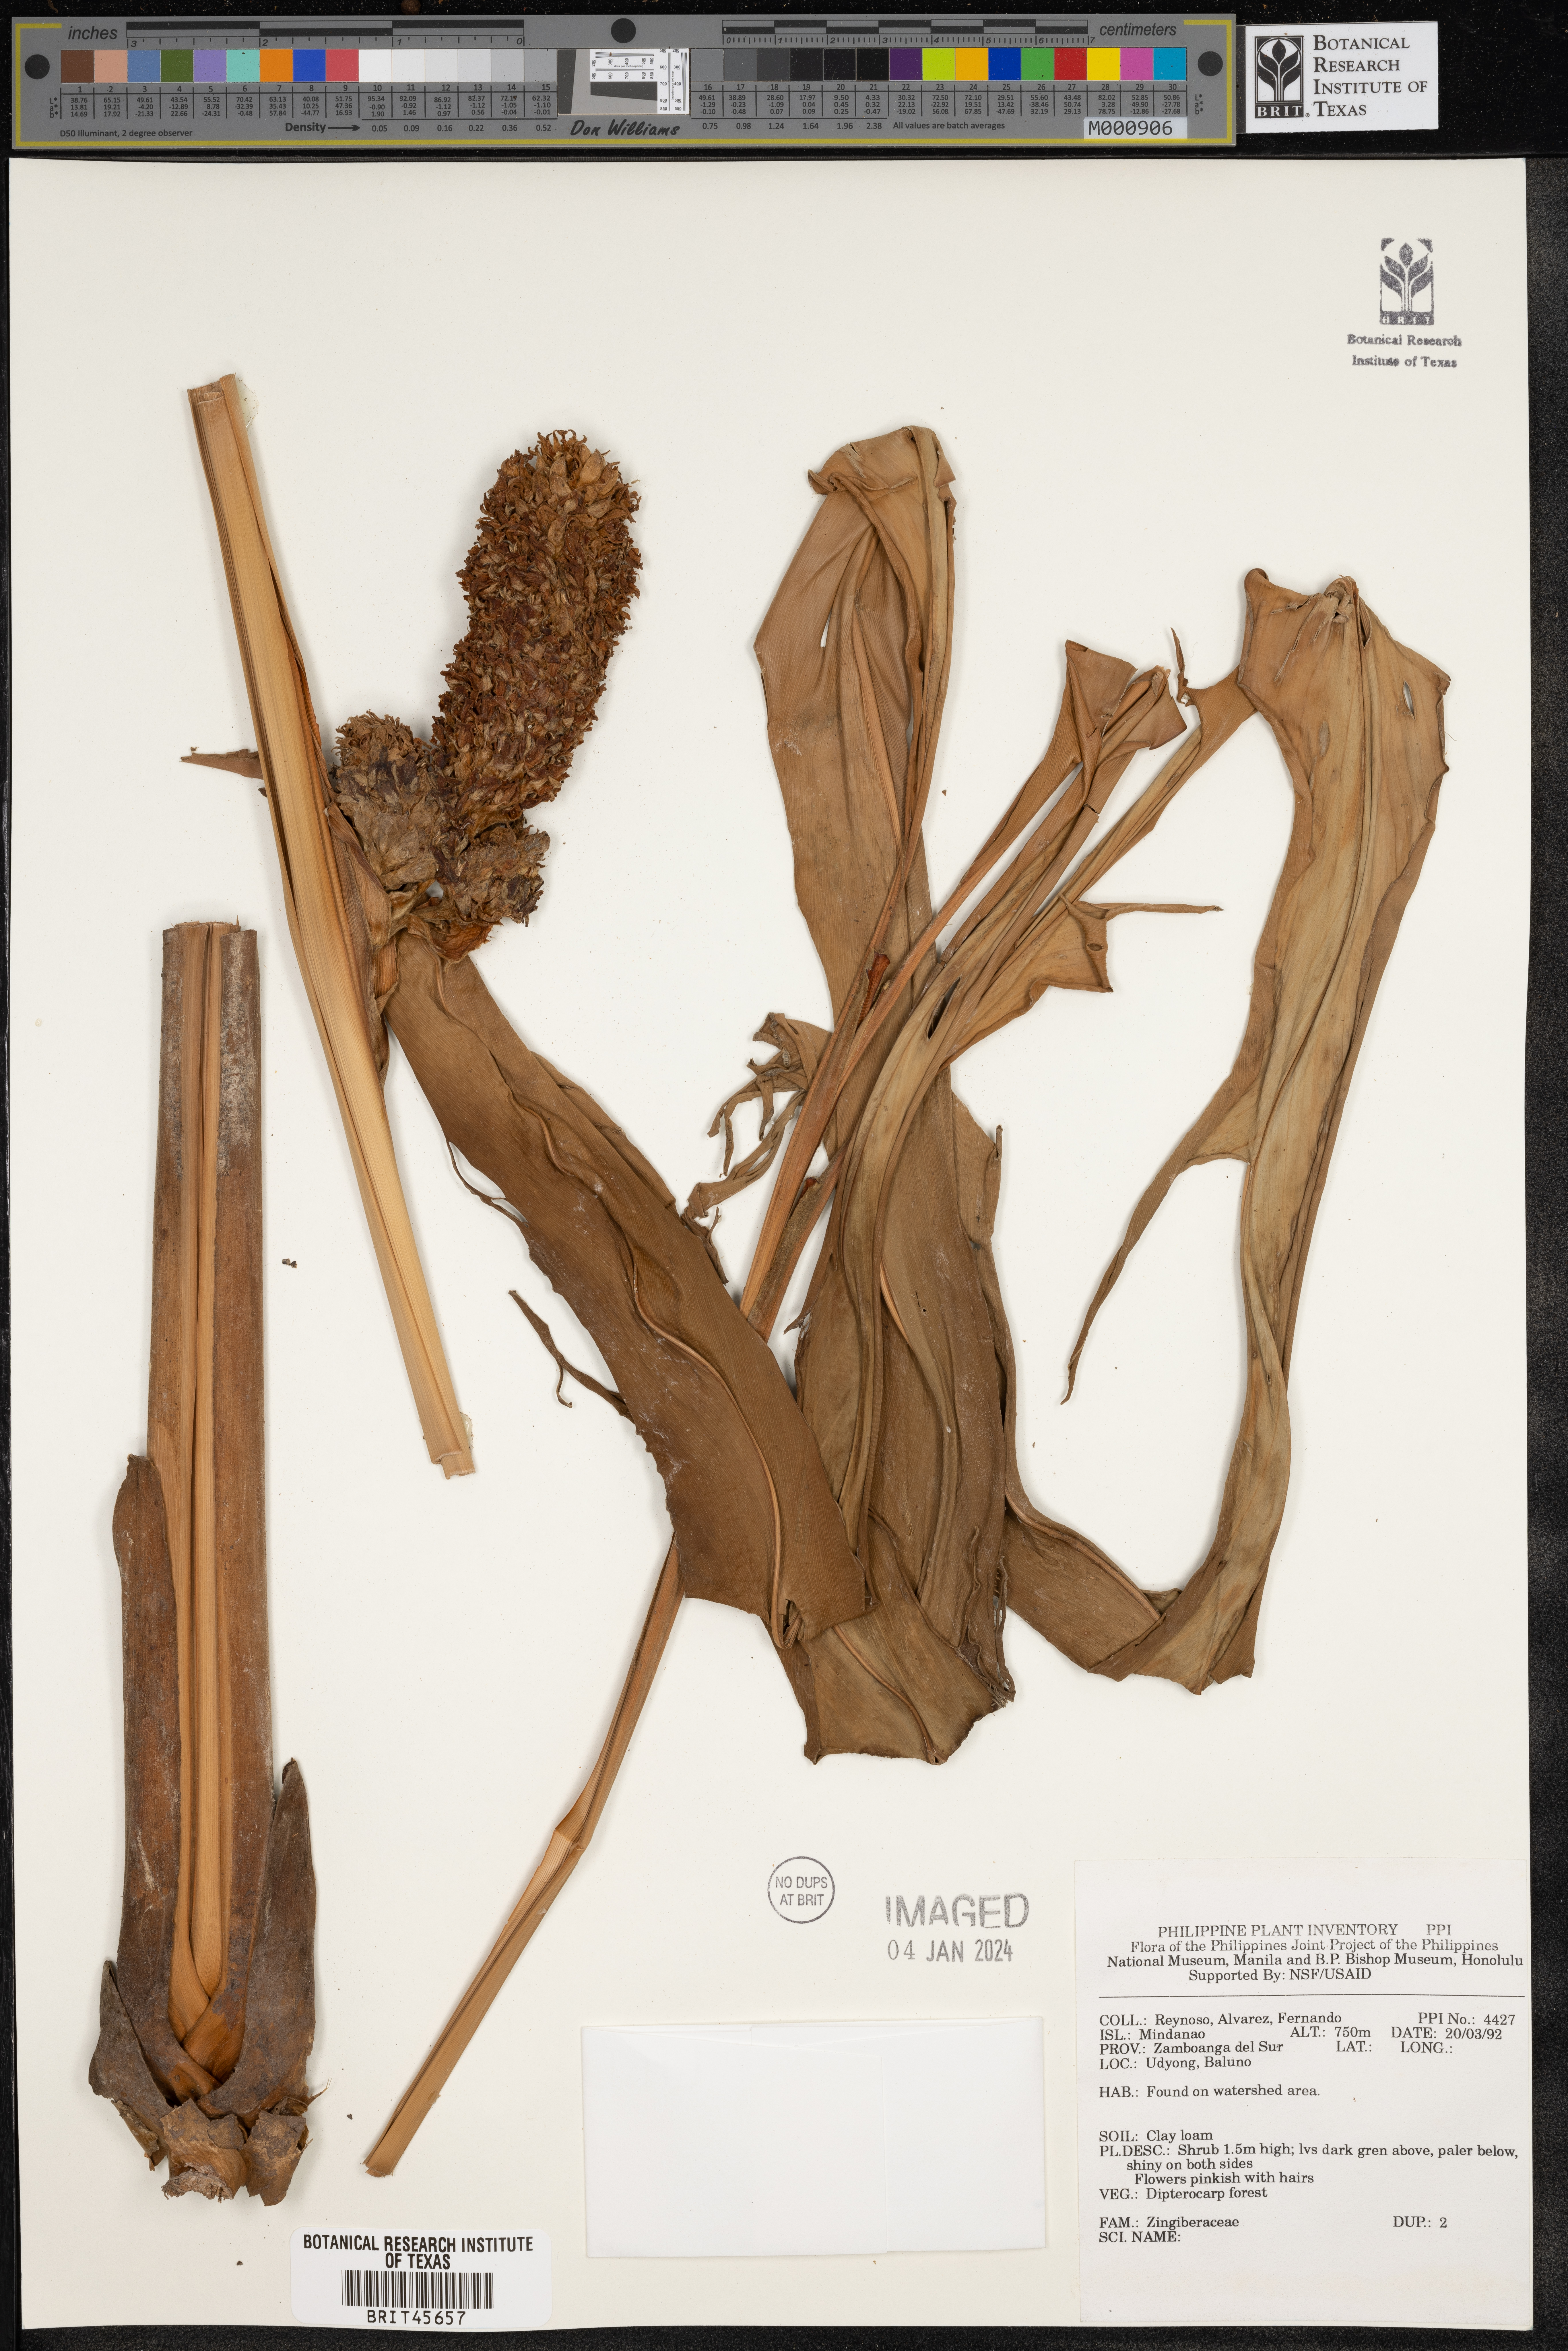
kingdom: Plantae
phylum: Tracheophyta
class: Liliopsida
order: Zingiberales
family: Zingiberaceae
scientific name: Zingiberaceae
